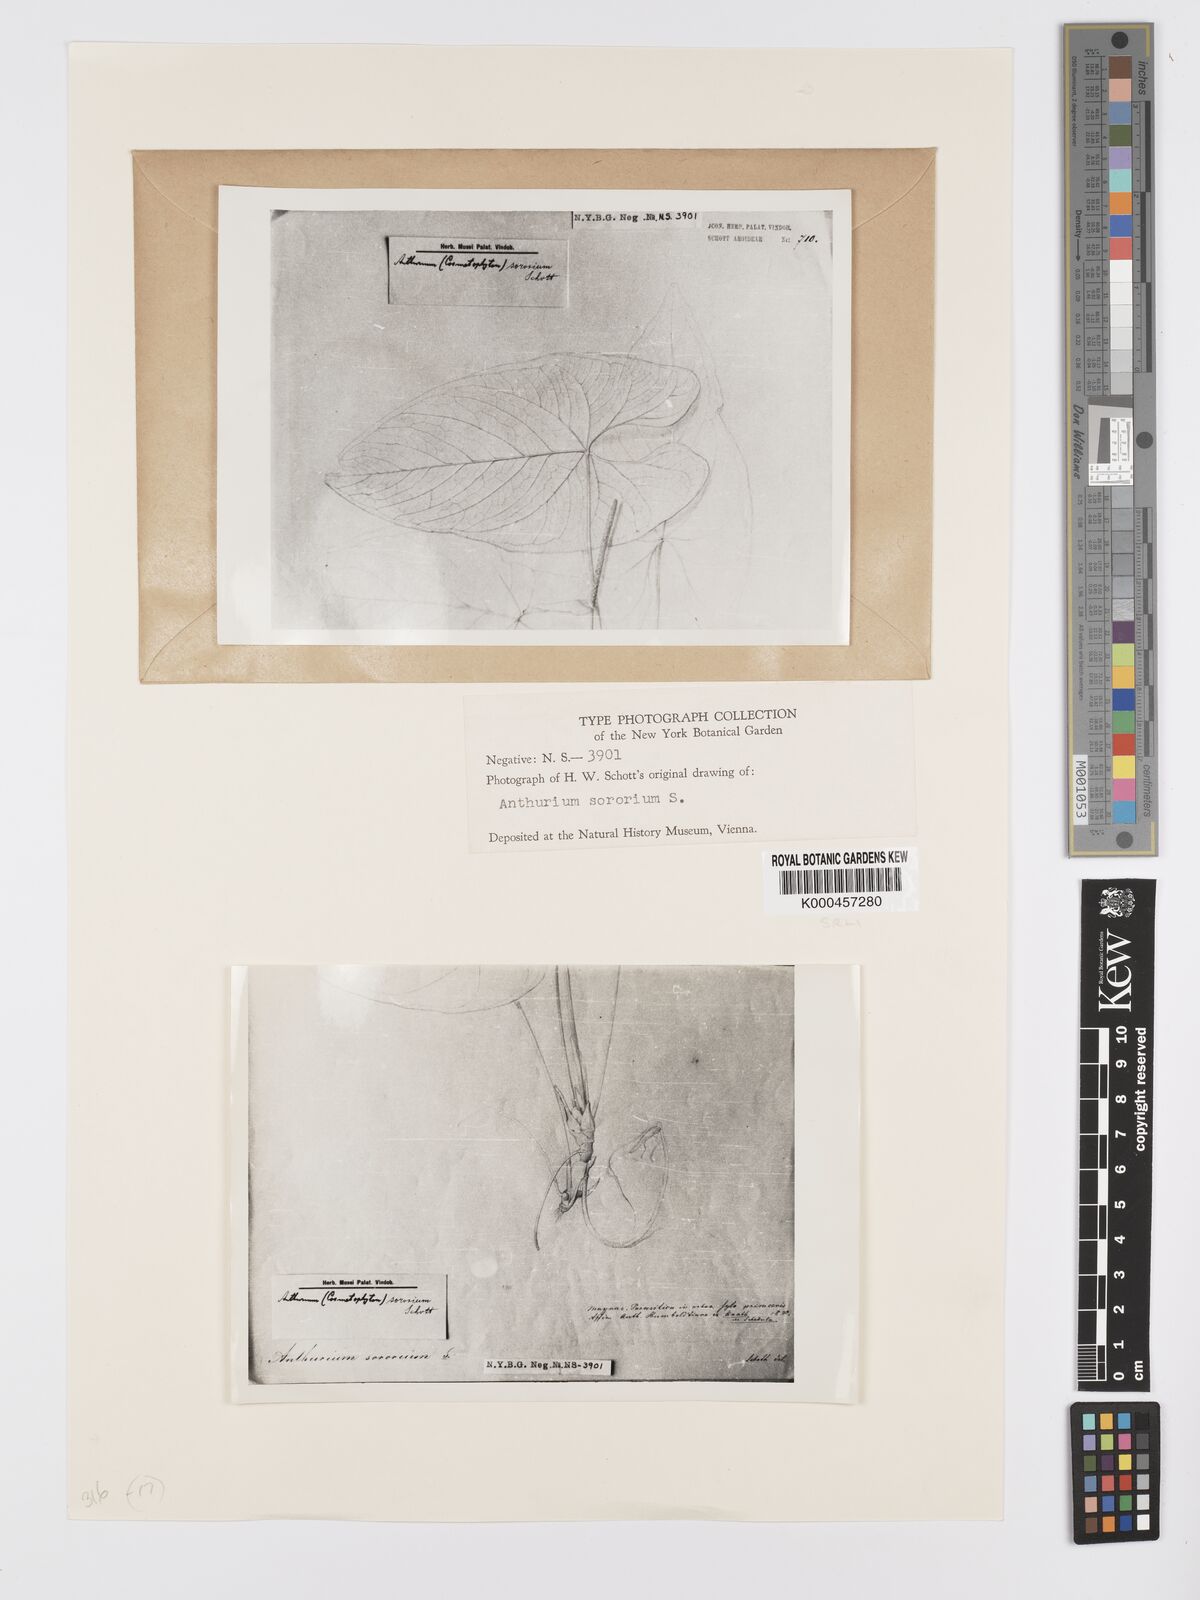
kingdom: Plantae
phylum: Tracheophyta
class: Liliopsida
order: Alismatales
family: Araceae
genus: Anthurium
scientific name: Anthurium sagittatum
